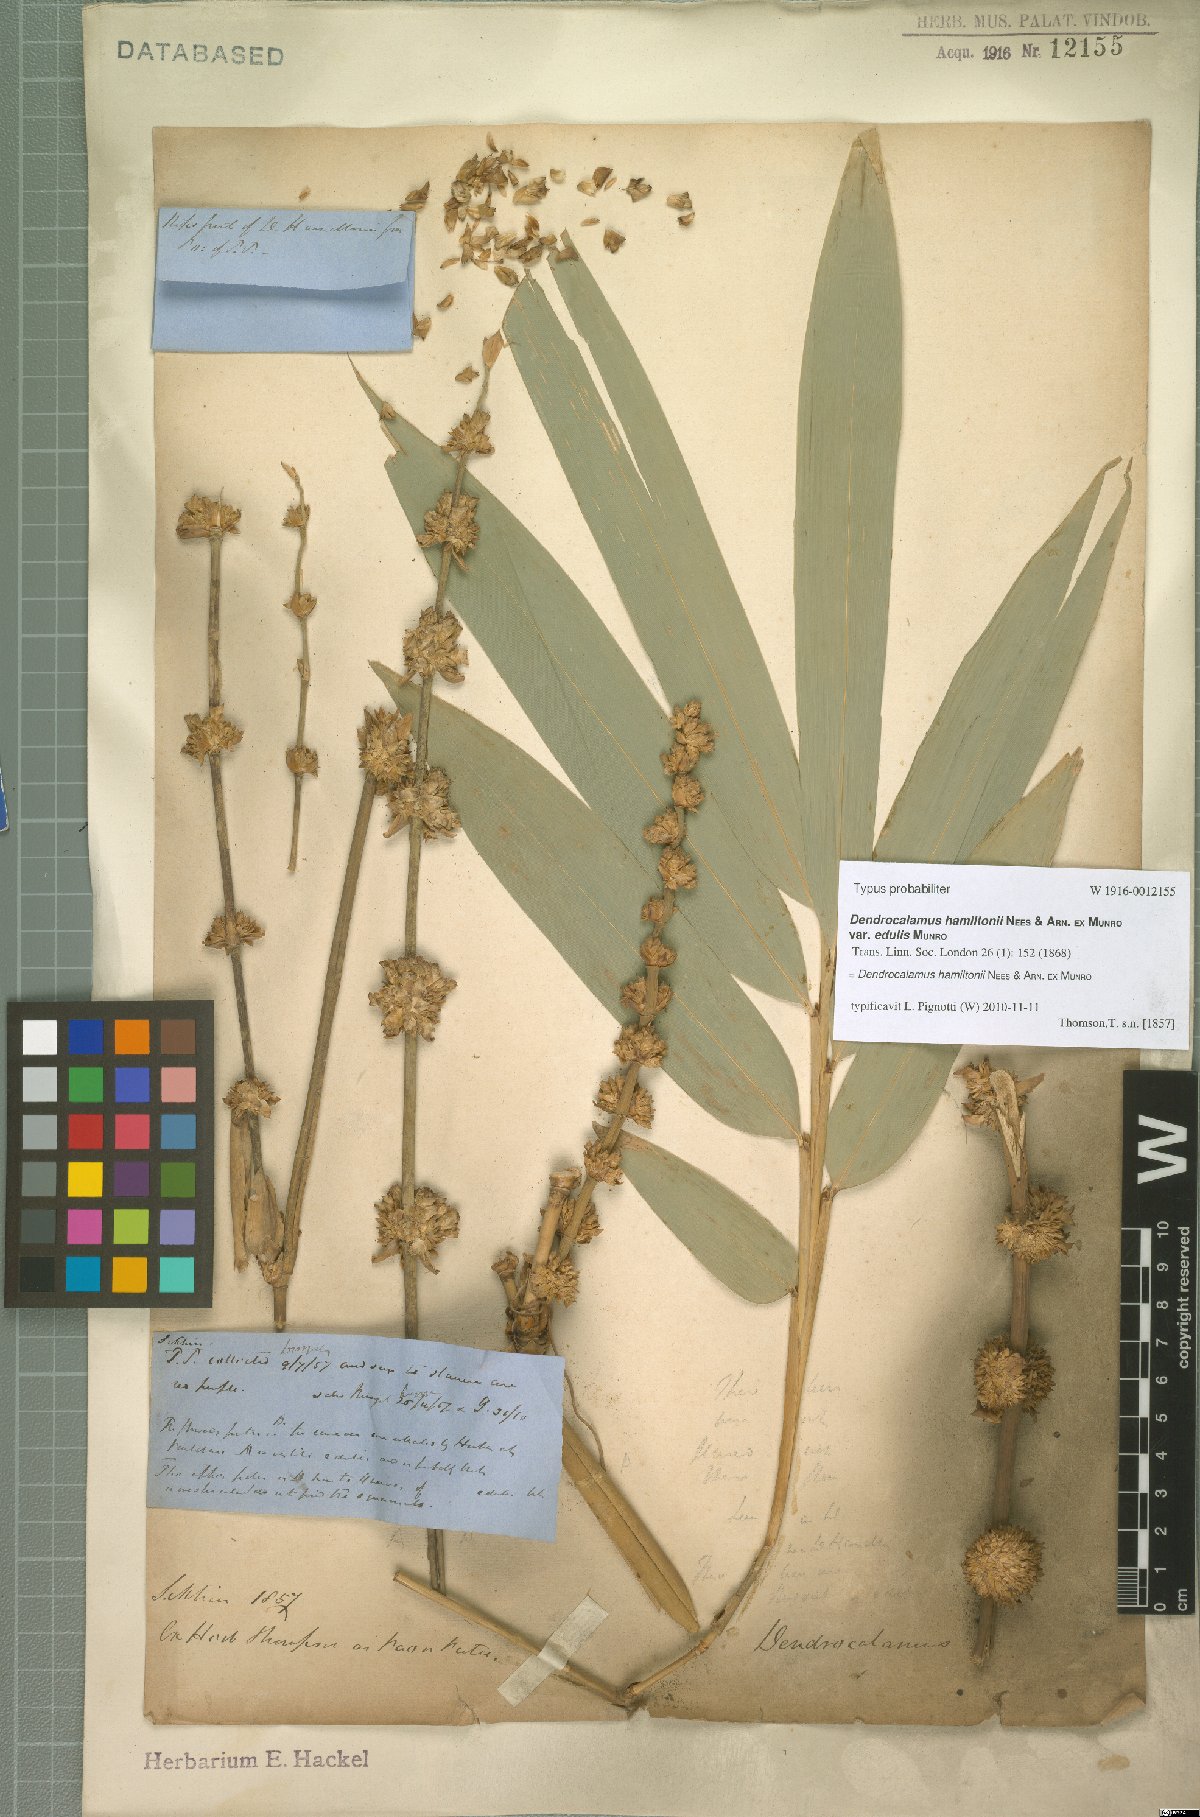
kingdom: Plantae
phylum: Tracheophyta
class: Liliopsida
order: Poales
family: Poaceae
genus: Dendrocalamus
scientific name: Dendrocalamus hamiltonii
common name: Tama bamboo
